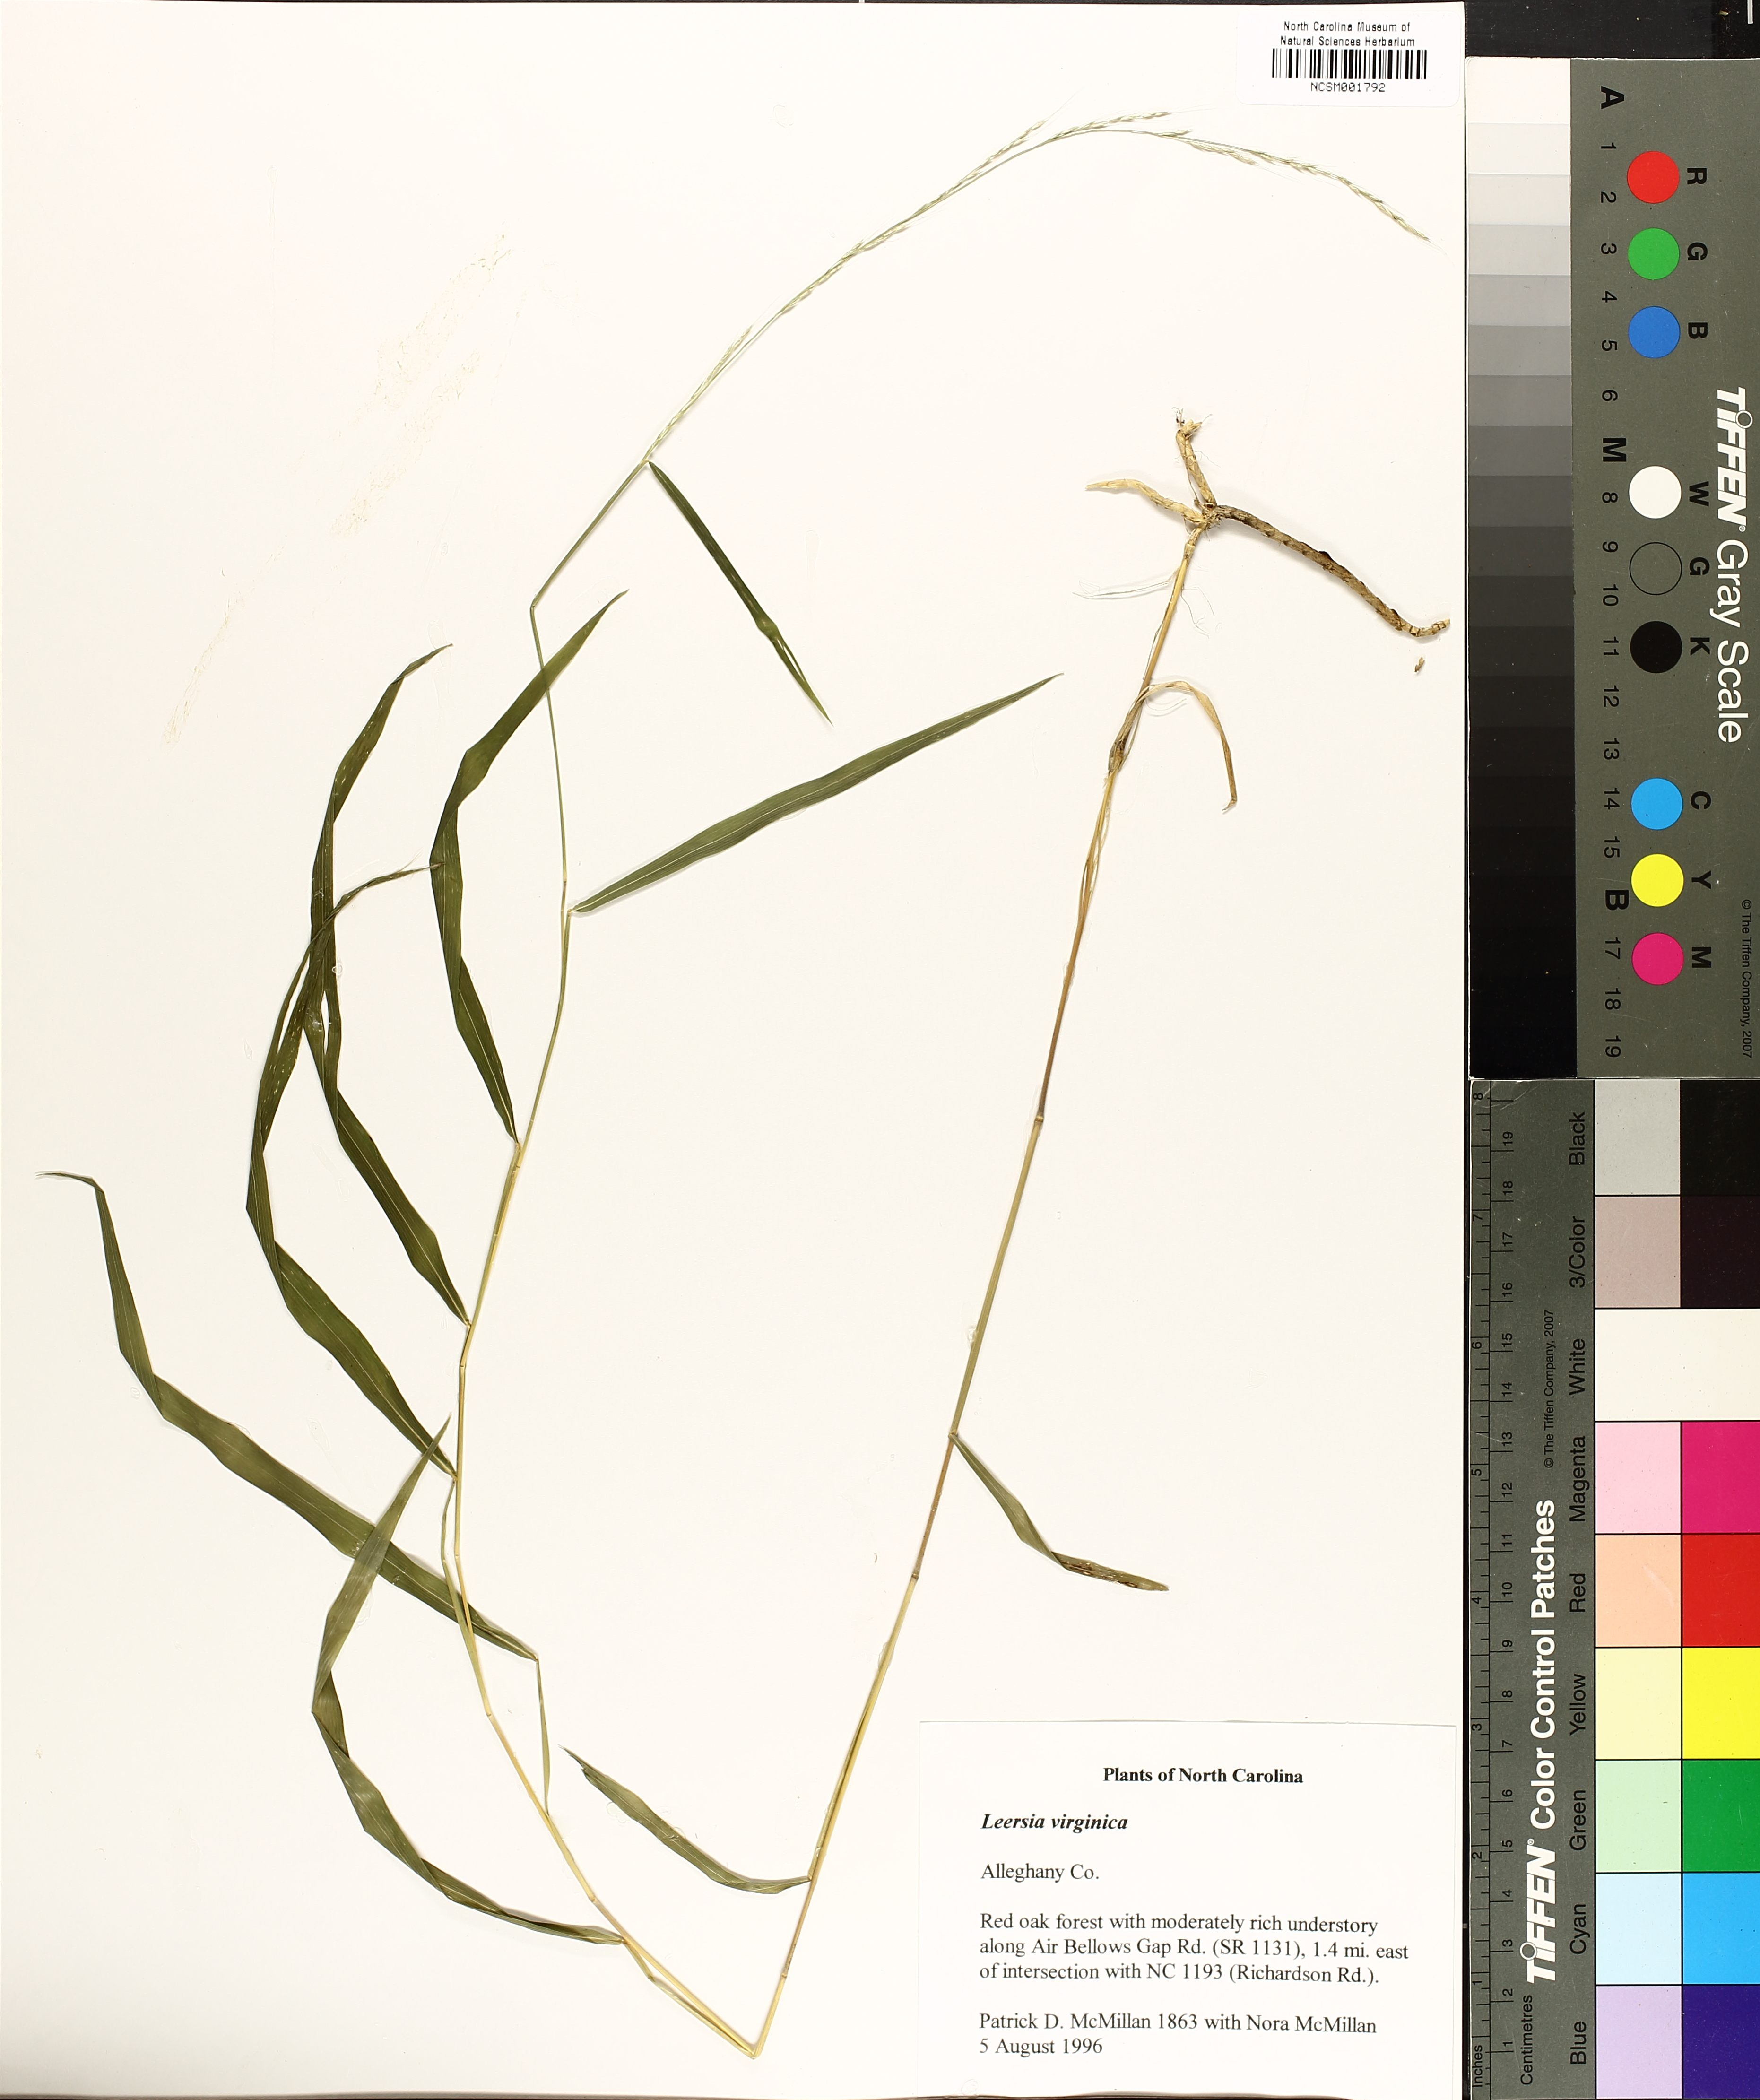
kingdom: Plantae
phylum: Tracheophyta
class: Liliopsida
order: Poales
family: Poaceae
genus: Leersia
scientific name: Leersia virginica
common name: White cutgrass
